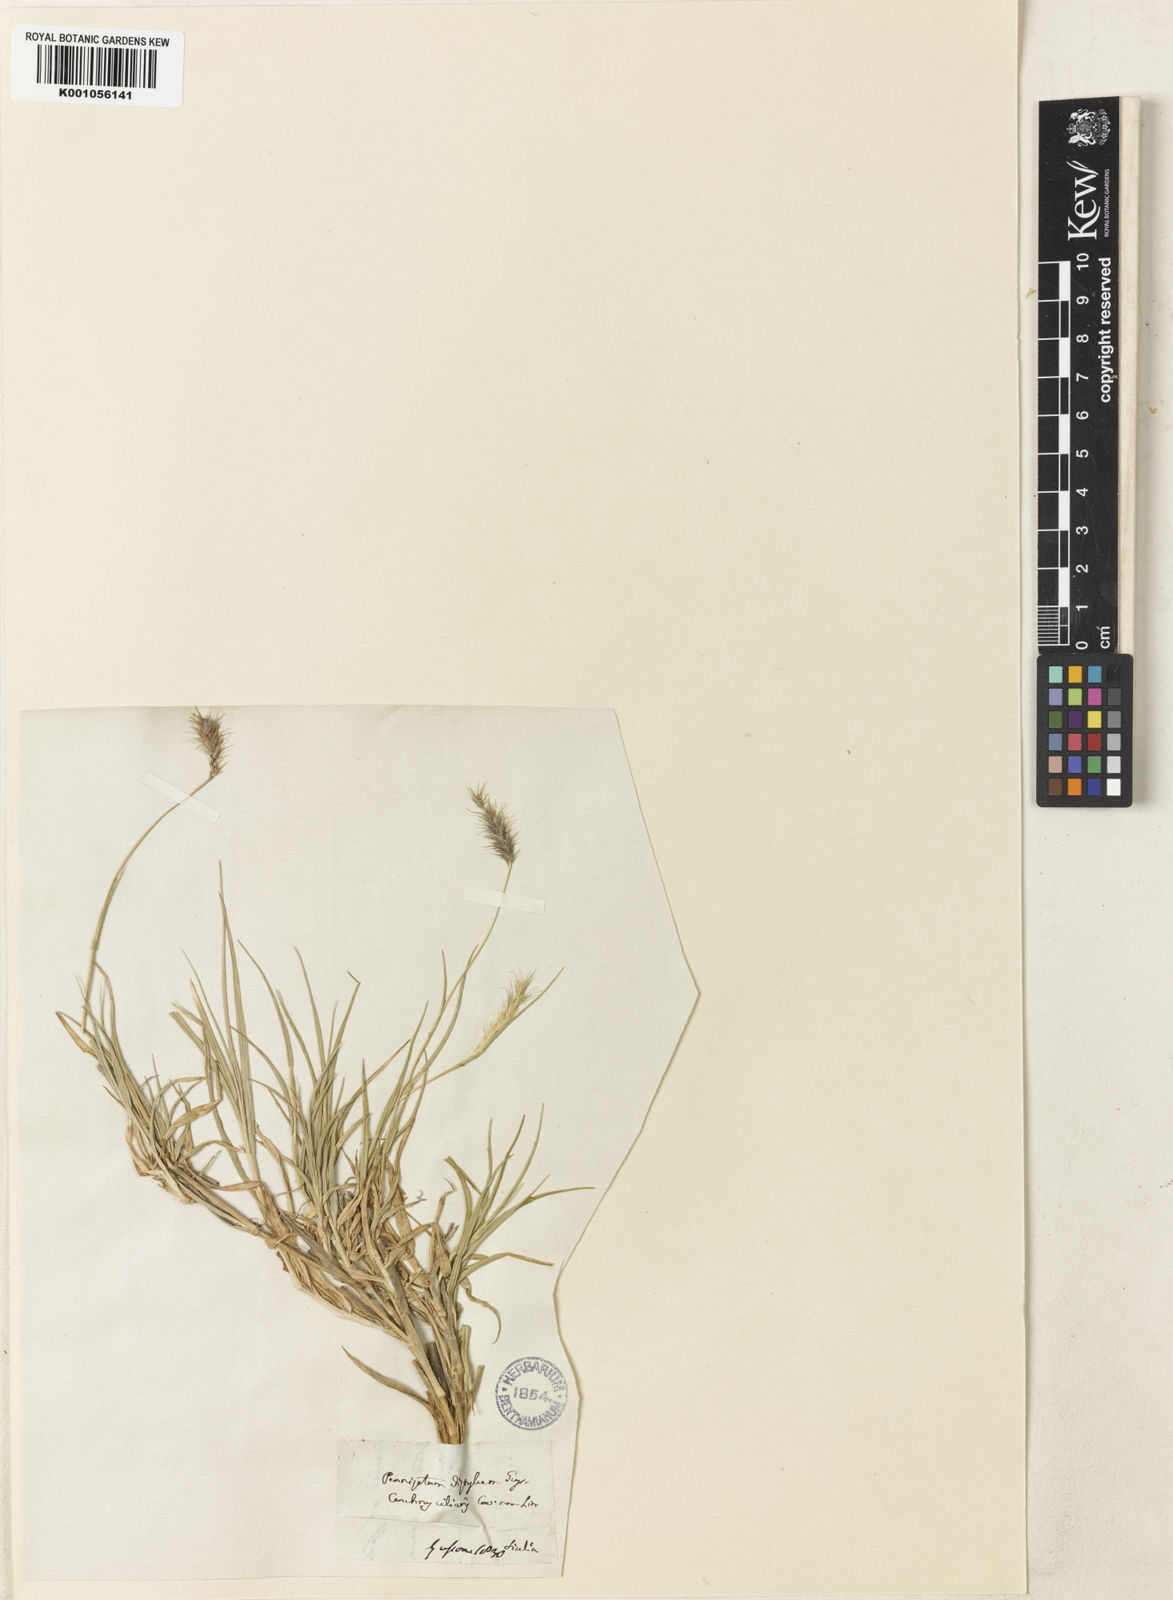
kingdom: Plantae
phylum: Tracheophyta
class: Liliopsida
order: Poales
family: Poaceae
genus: Cenchrus
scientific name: Cenchrus ciliaris
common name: Buffelgrass
